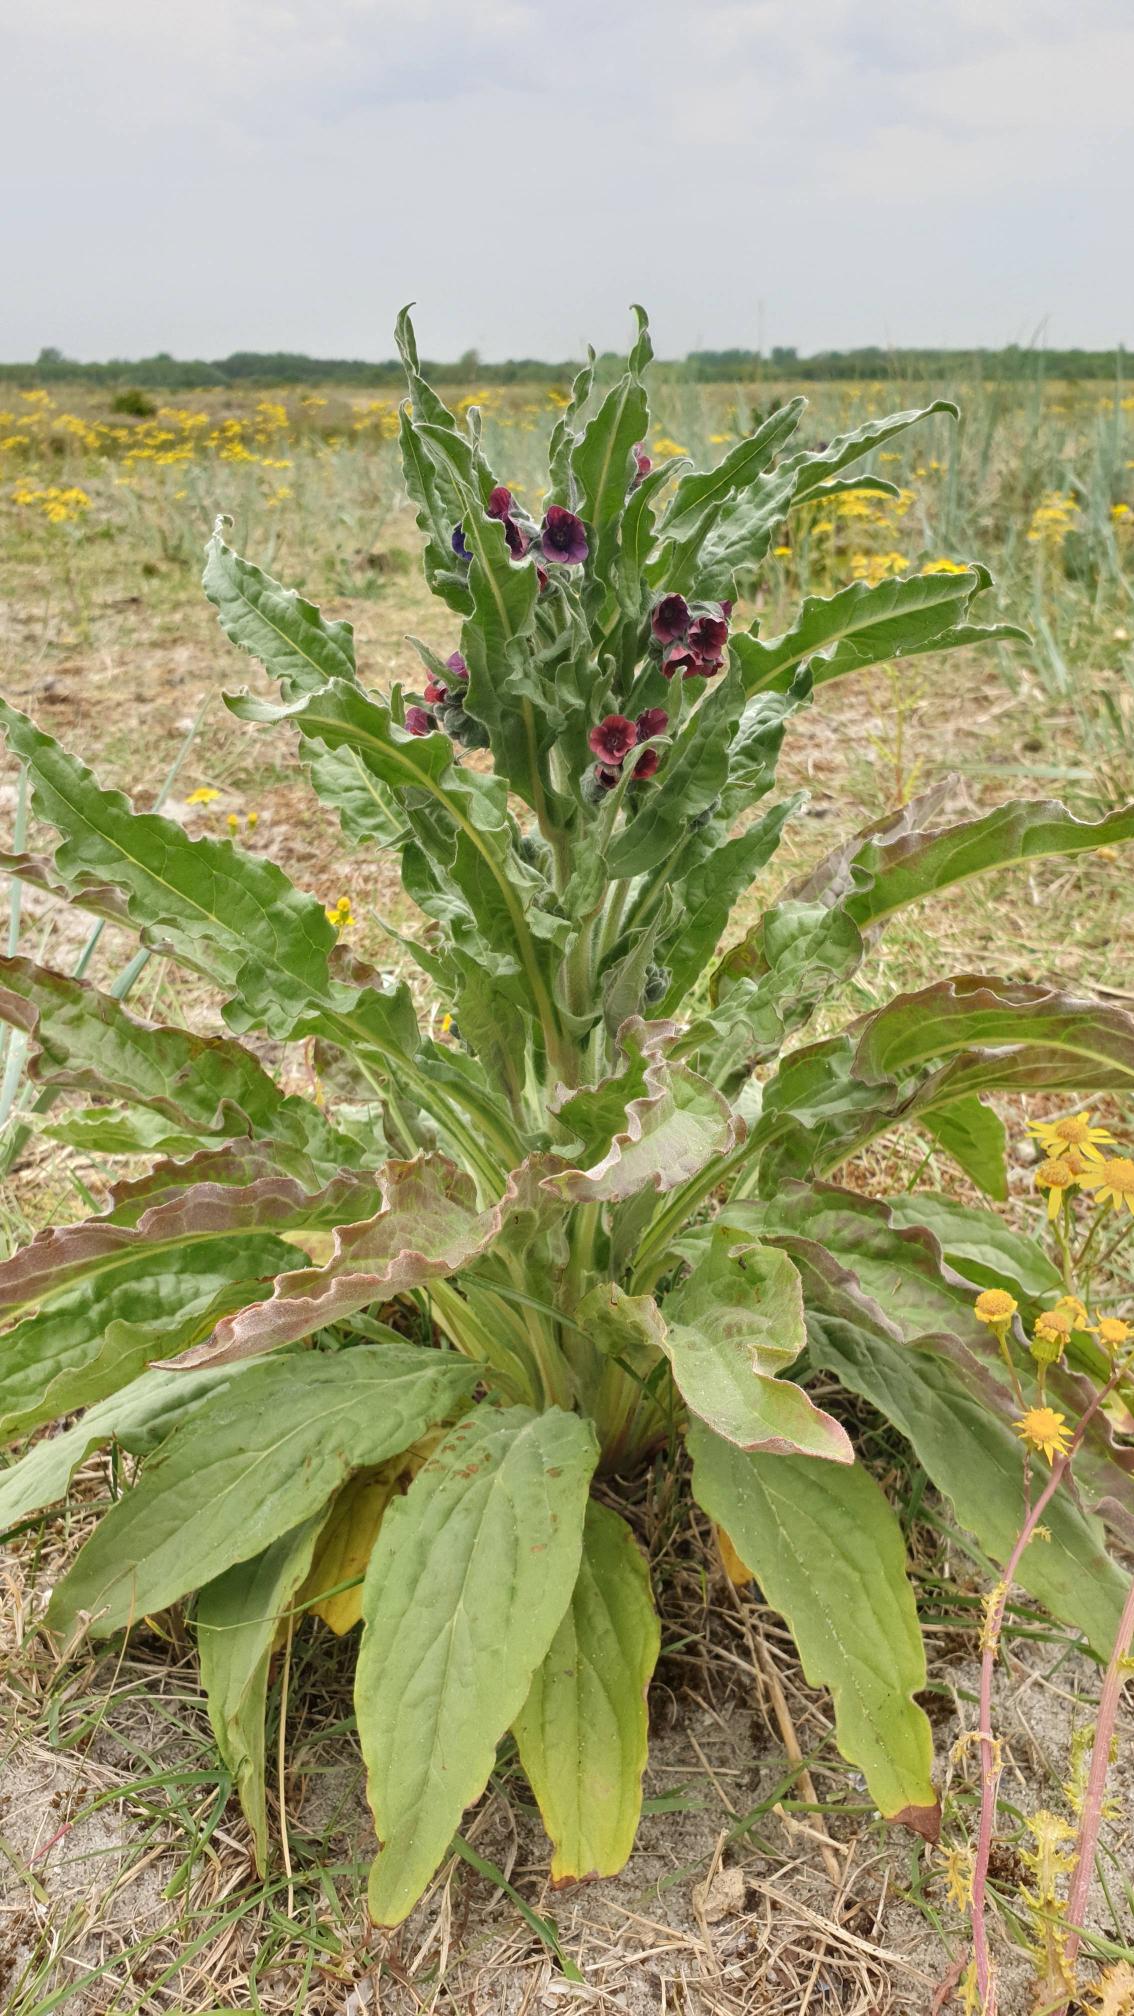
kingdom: Plantae
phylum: Tracheophyta
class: Magnoliopsida
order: Boraginales
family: Boraginaceae
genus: Cynoglossum
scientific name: Cynoglossum officinale
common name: Hundetunge
